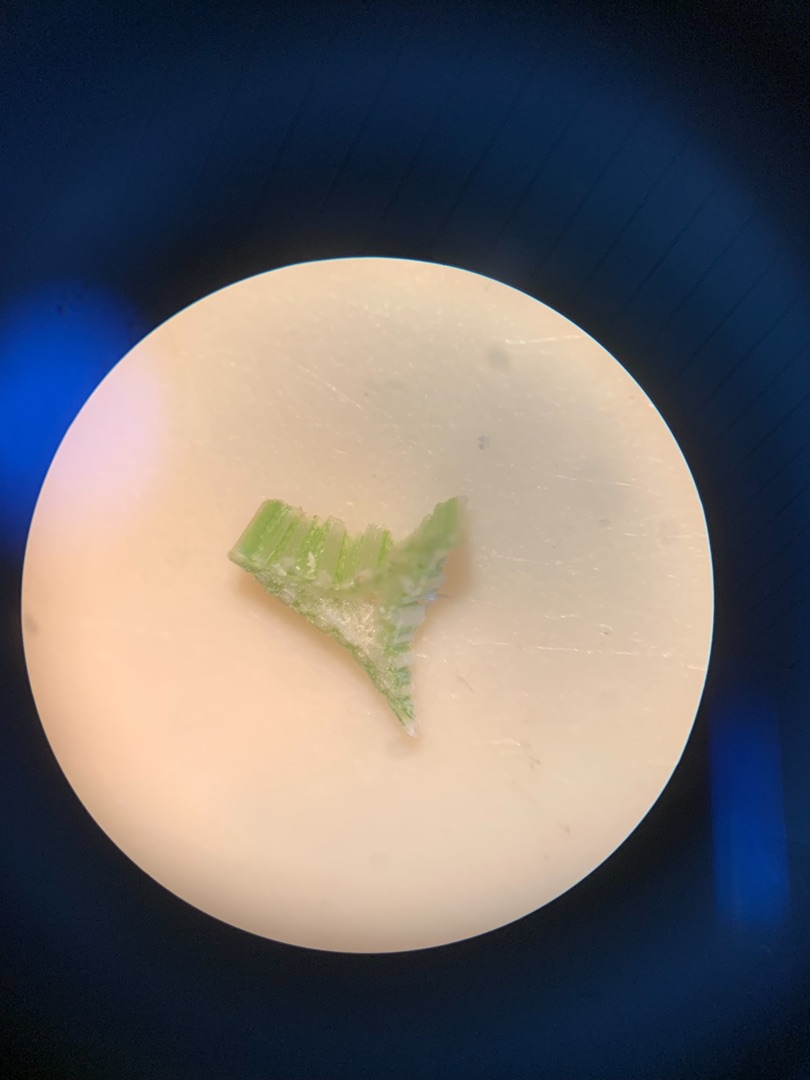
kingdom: Plantae
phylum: Tracheophyta
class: Liliopsida
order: Poales
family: Cyperaceae
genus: Carex
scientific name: Carex otrubae
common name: Sylt-star
